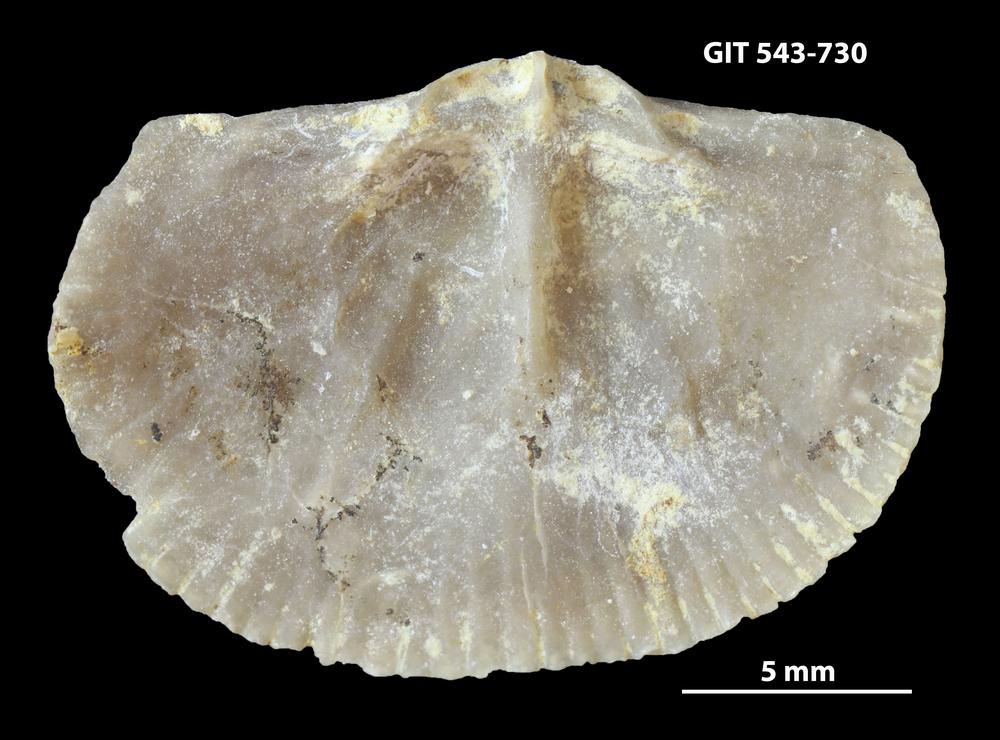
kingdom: Animalia
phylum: Brachiopoda
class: Rhynchonellata
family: Clitambonitidae
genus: Vellamo
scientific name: Vellamo oandoensis
